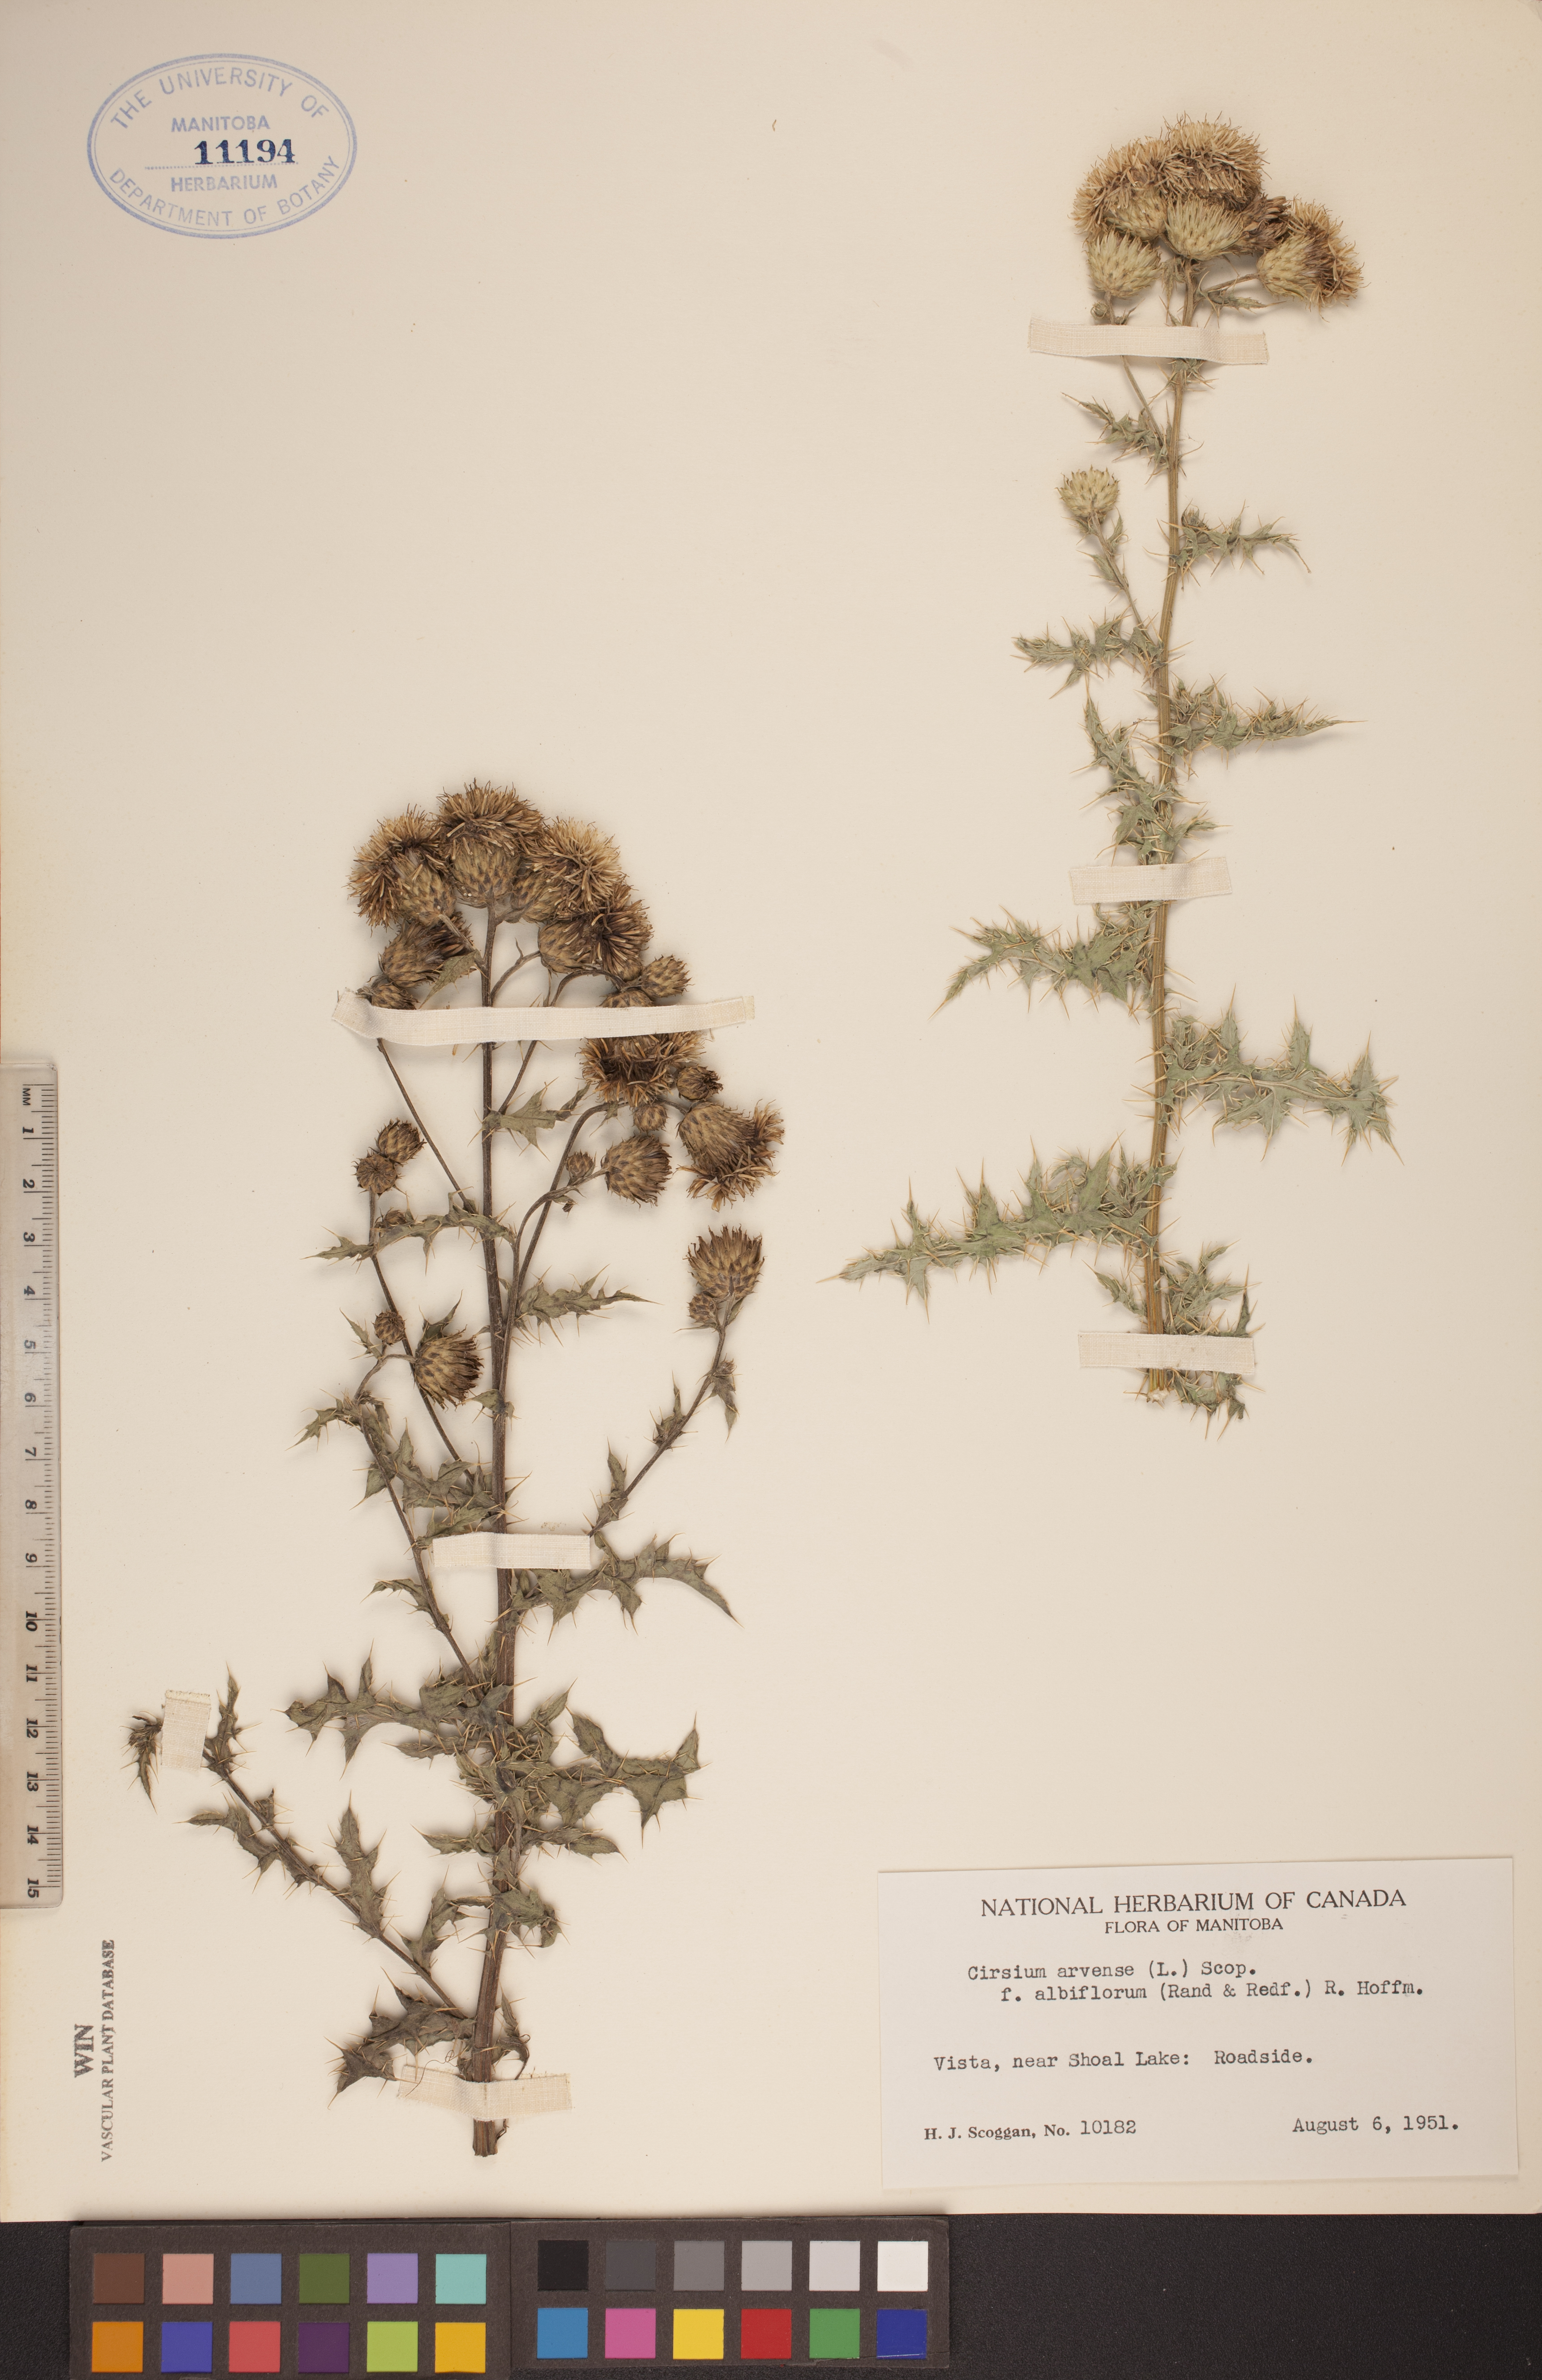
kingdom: Plantae
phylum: Tracheophyta
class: Magnoliopsida
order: Asterales
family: Asteraceae
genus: Cirsium
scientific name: Cirsium arvense
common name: Creeping thistle
